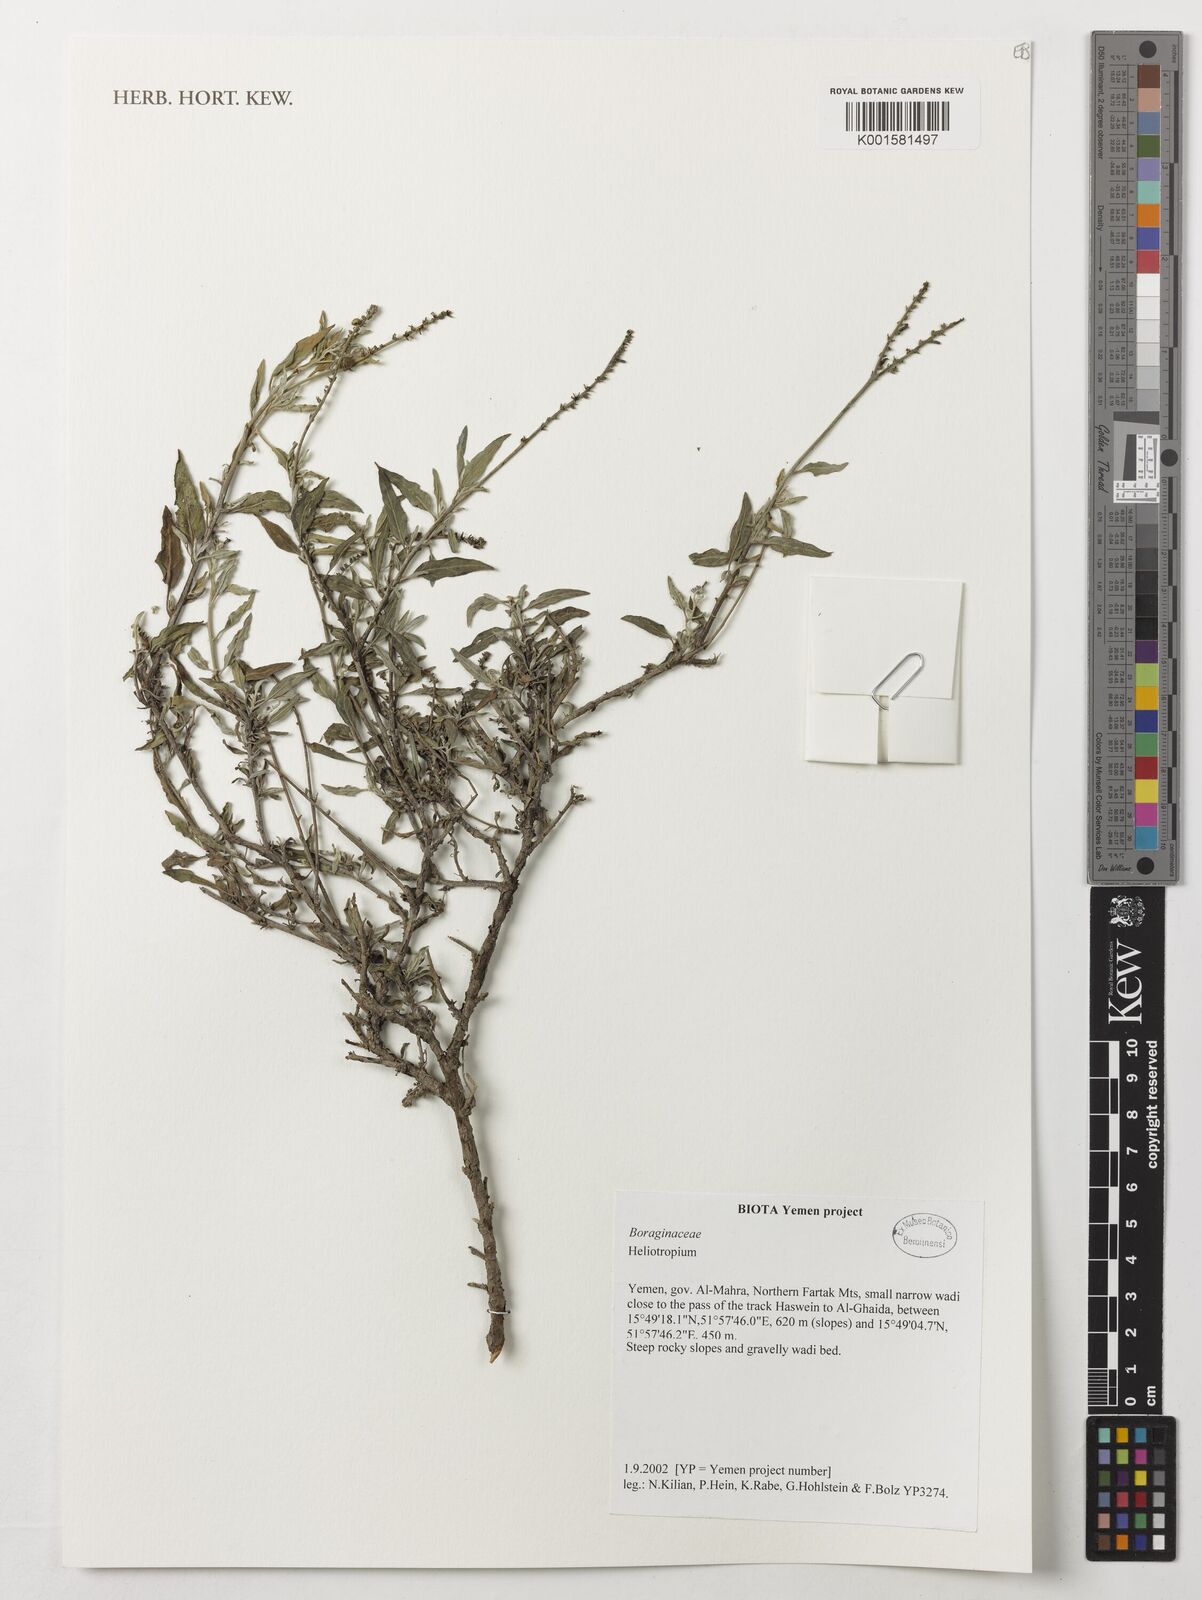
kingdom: Plantae
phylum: Tracheophyta
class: Magnoliopsida
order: Boraginales
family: Heliotropiaceae
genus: Heliotropium
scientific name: Heliotropium
